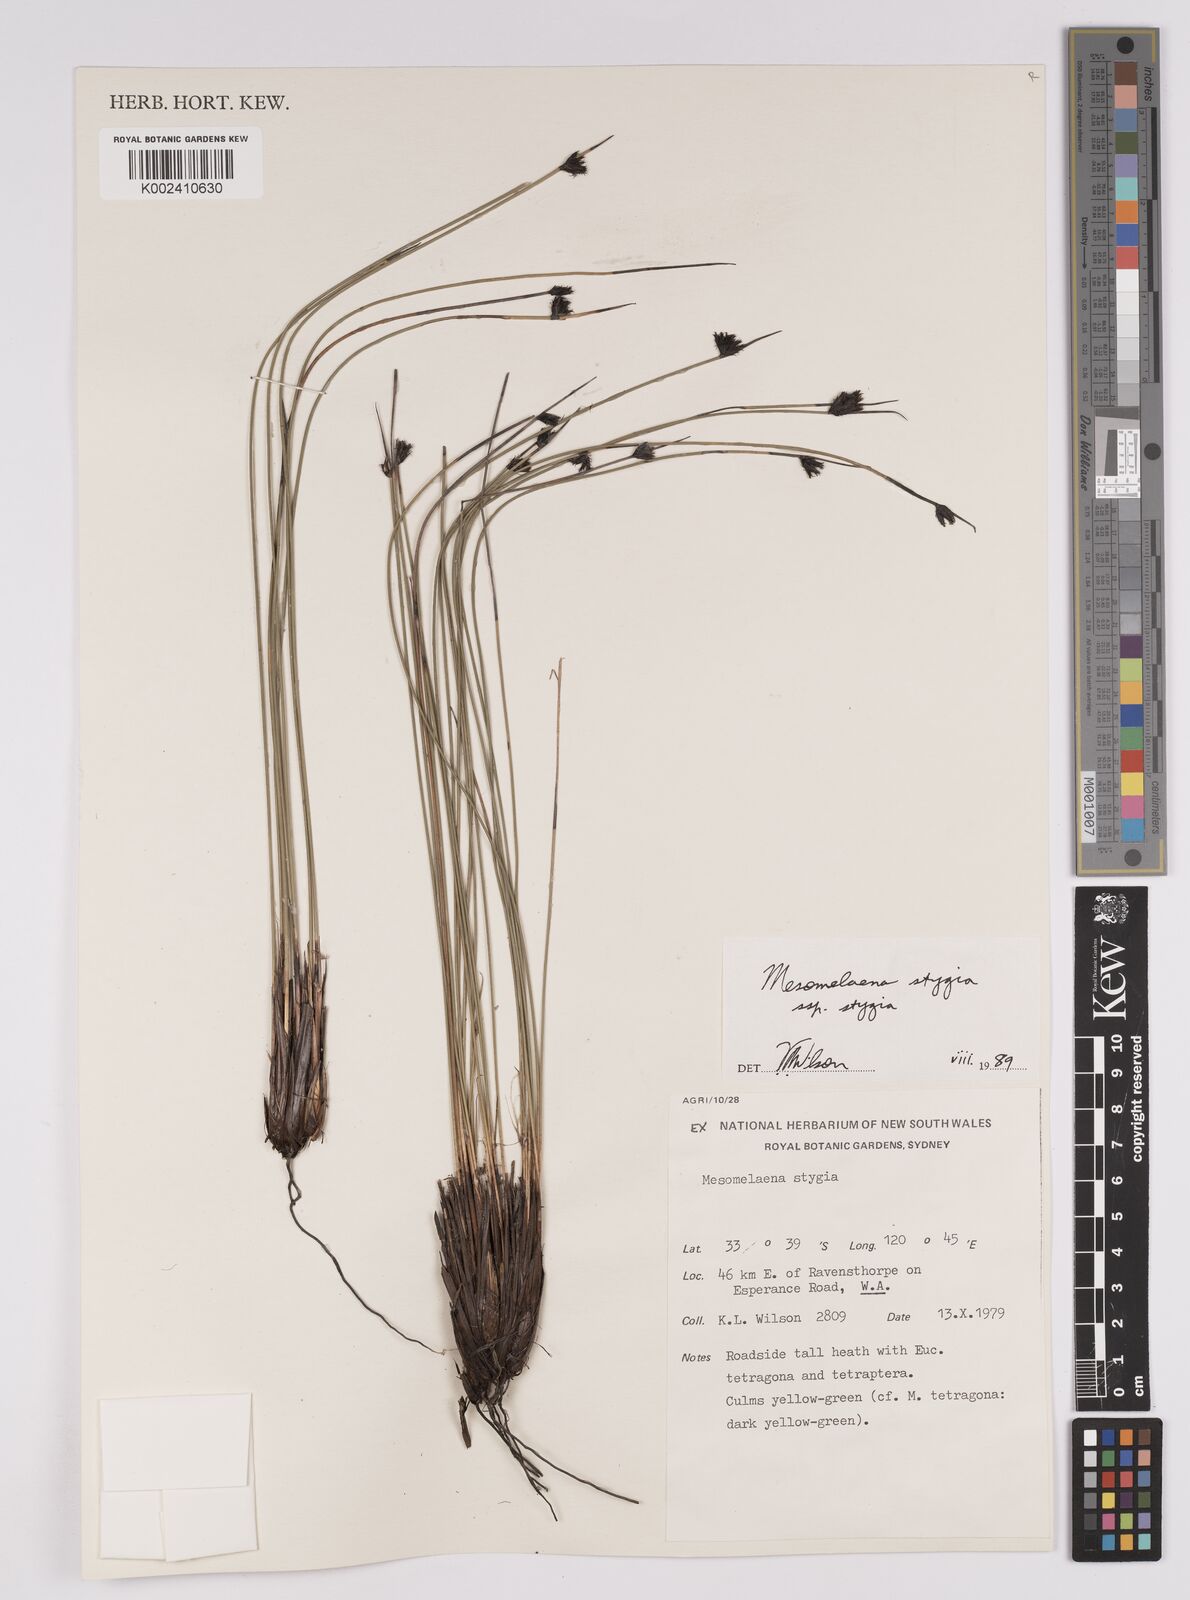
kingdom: Plantae
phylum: Tracheophyta
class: Liliopsida
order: Poales
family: Cyperaceae
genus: Mesomelaena
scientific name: Mesomelaena stygia
